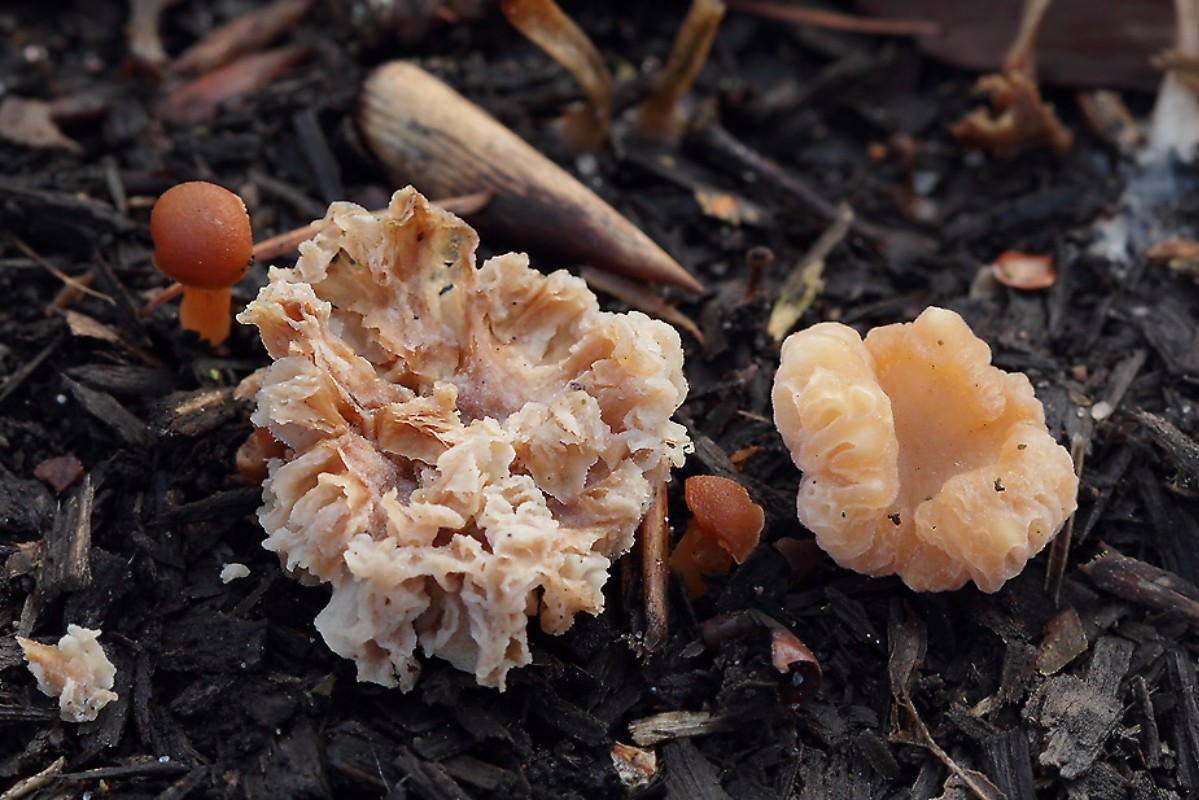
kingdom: Fungi
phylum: Ascomycota
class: Sordariomycetes
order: Hypocreales
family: Hypocreaceae
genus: Hypomyces
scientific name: Hypomyces tubariicola
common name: fnughat-snylteskorpe
